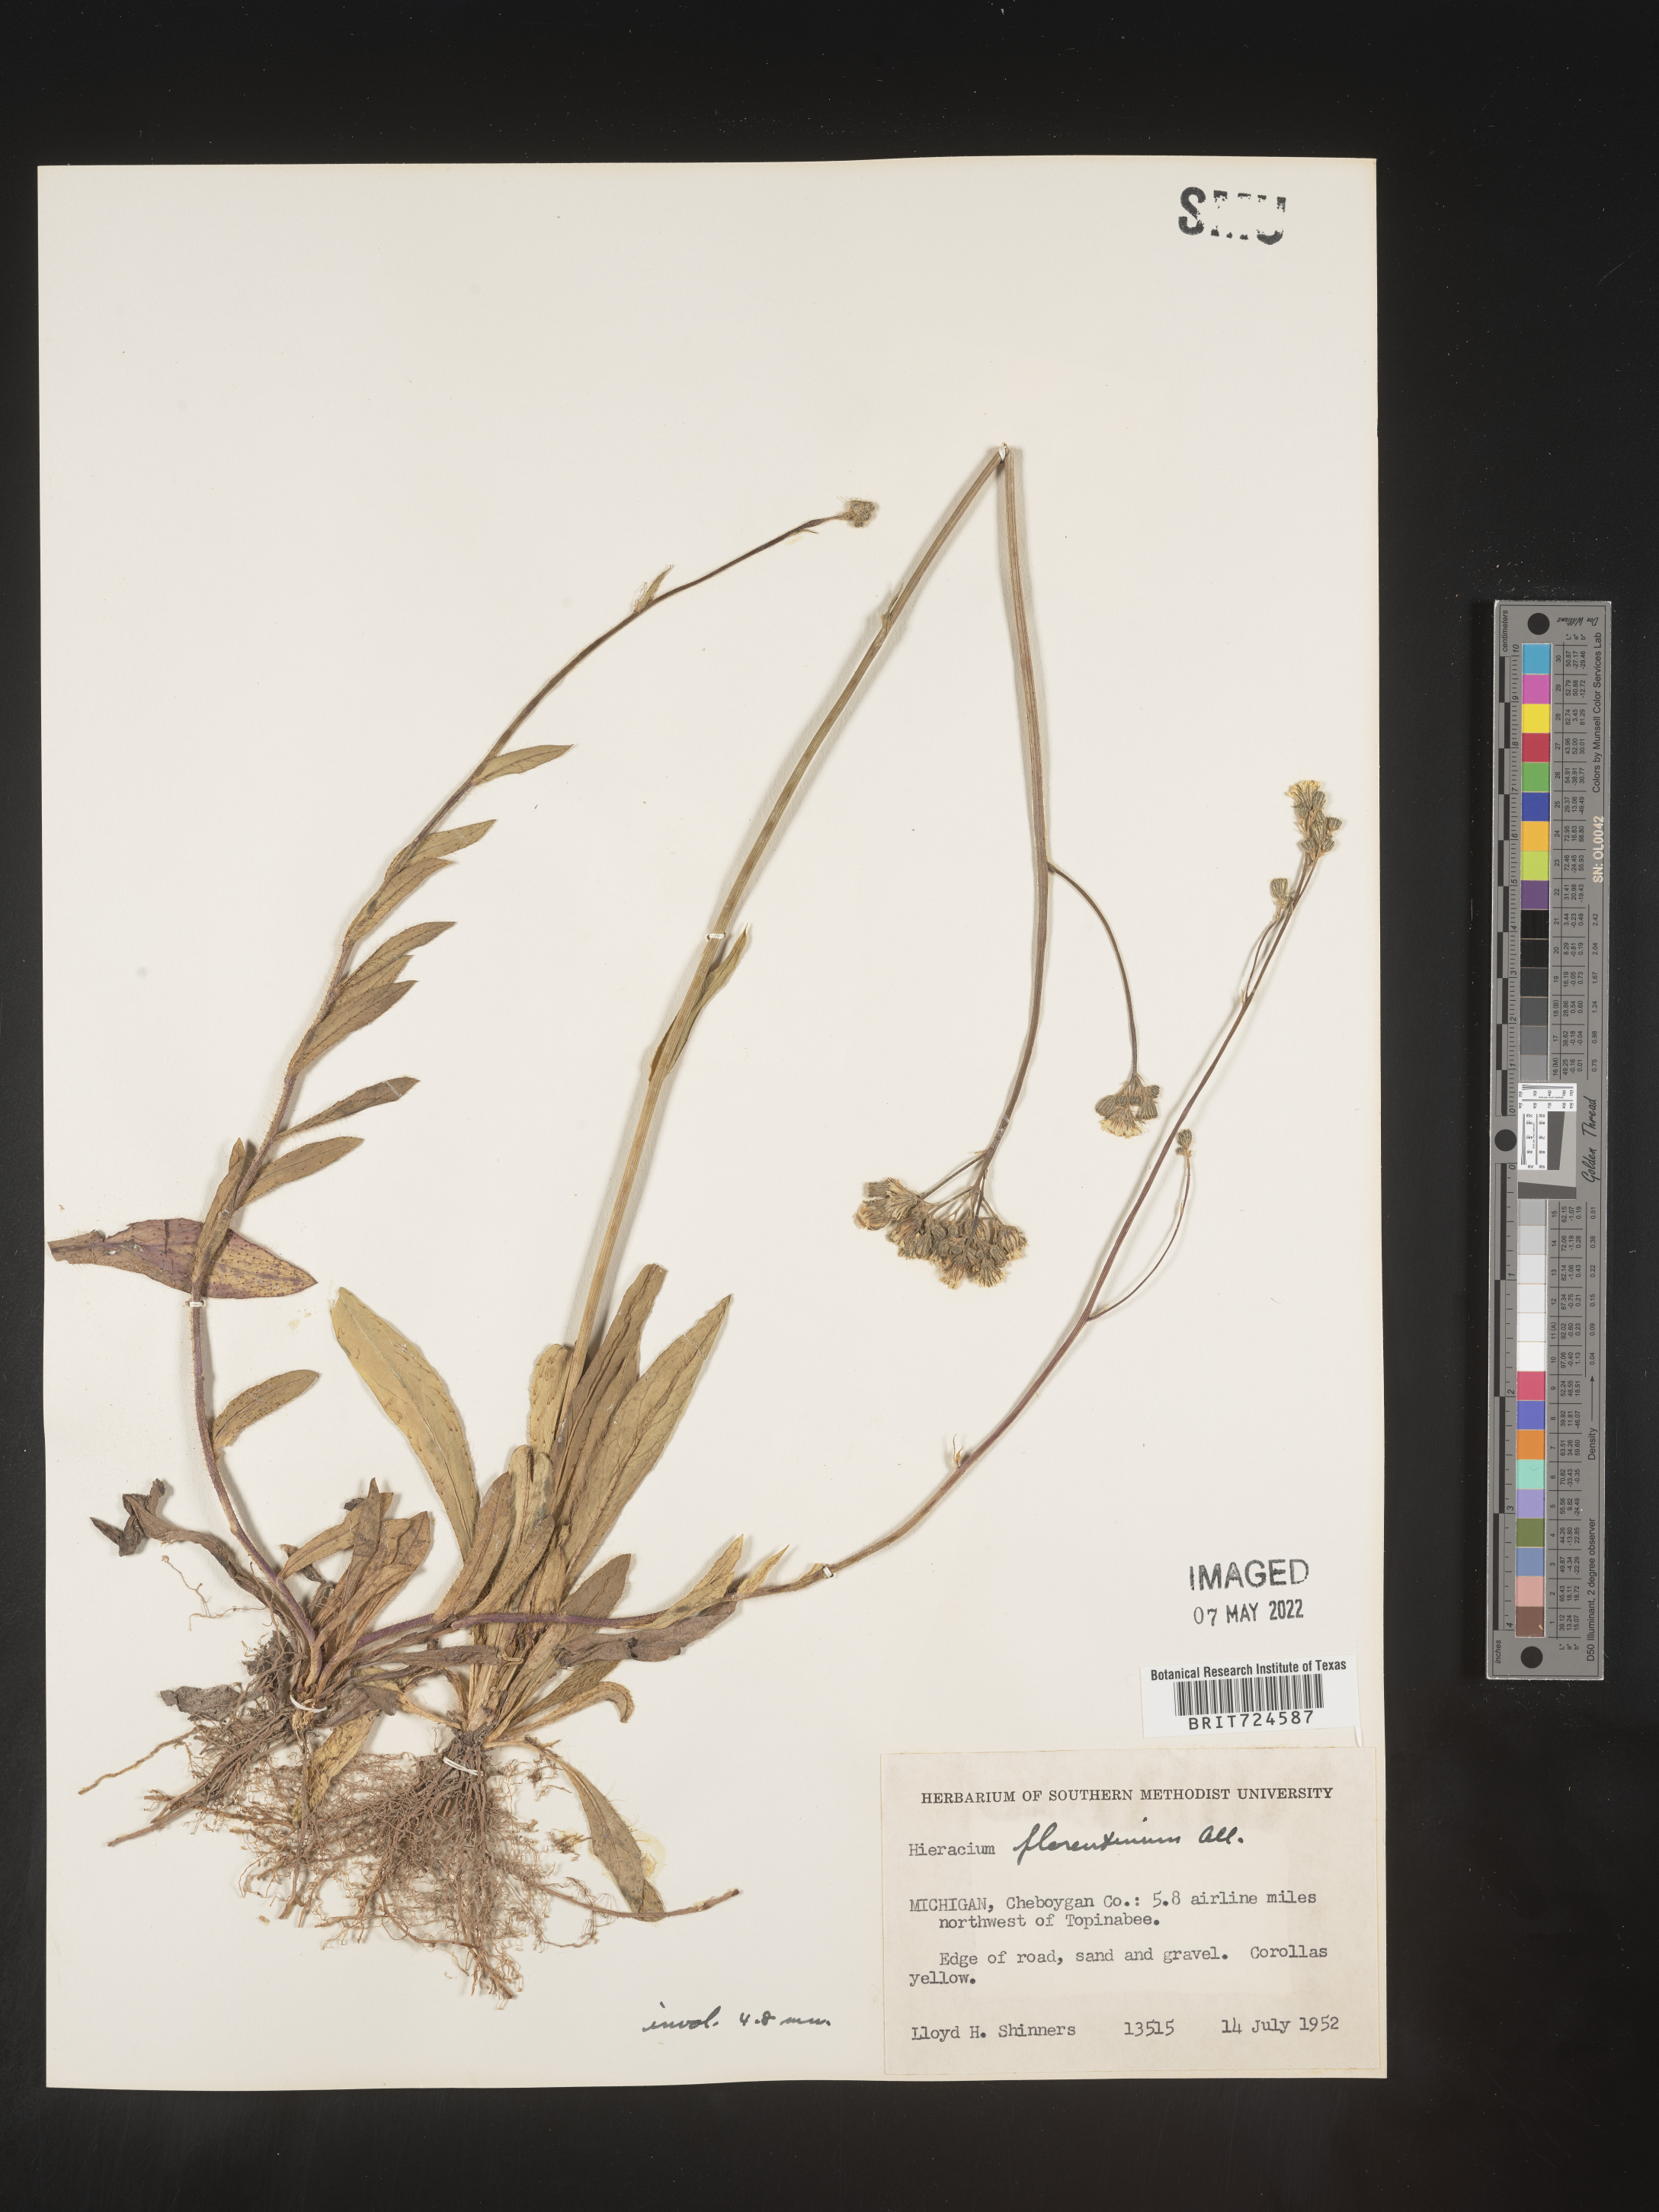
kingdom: Plantae
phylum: Tracheophyta
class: Magnoliopsida
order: Asterales
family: Asteraceae
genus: Pilosella
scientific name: Pilosella piloselloides
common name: Glaucous king-devil
